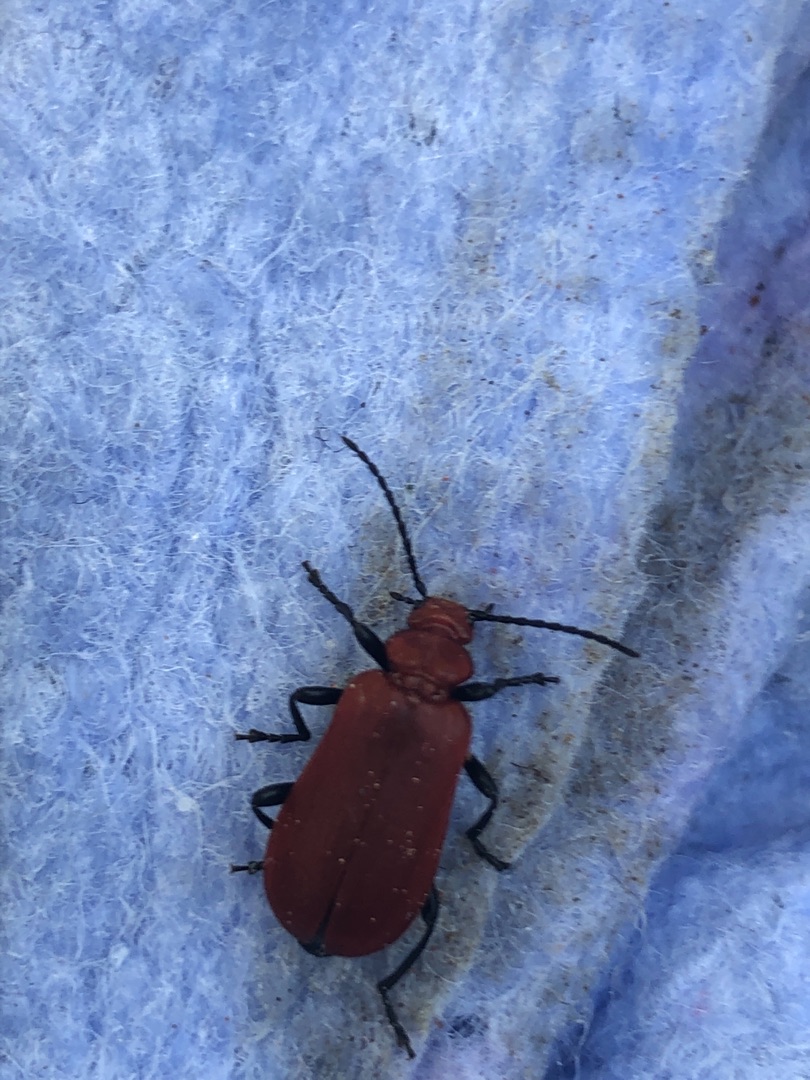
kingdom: Animalia
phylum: Arthropoda
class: Insecta
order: Coleoptera
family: Pyrochroidae
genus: Pyrochroa
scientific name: Pyrochroa serraticornis
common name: Rødhovedet kardinalbille
